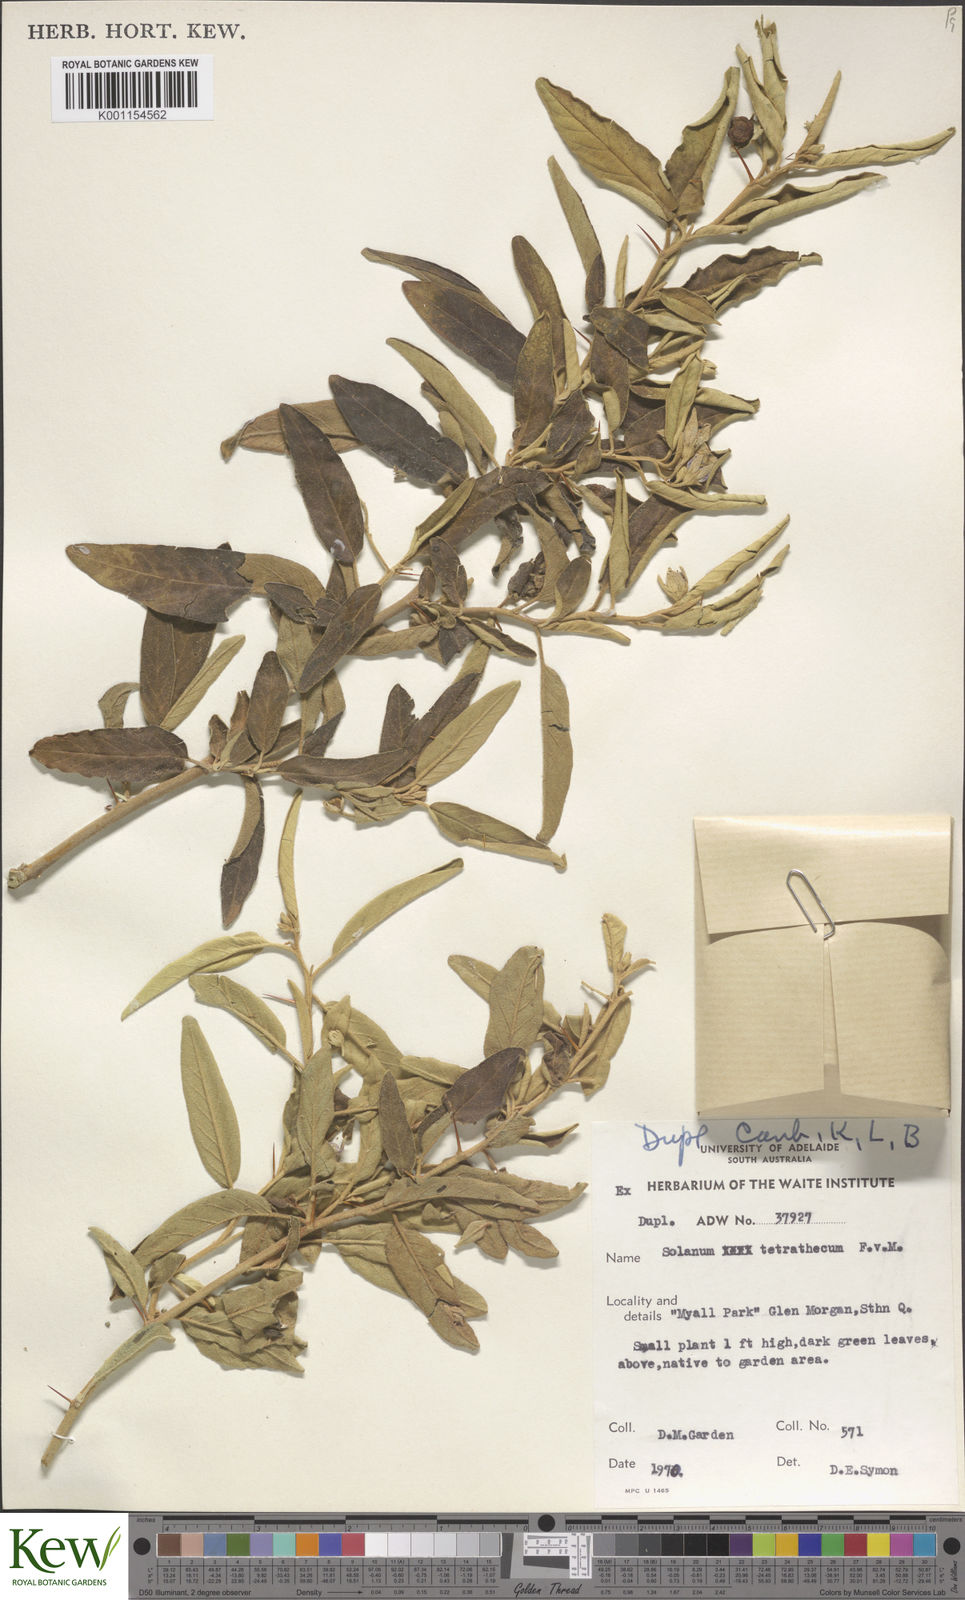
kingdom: Plantae
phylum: Tracheophyta
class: Magnoliopsida
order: Solanales
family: Solanaceae
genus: Solanum
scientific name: Solanum tetrathecum
